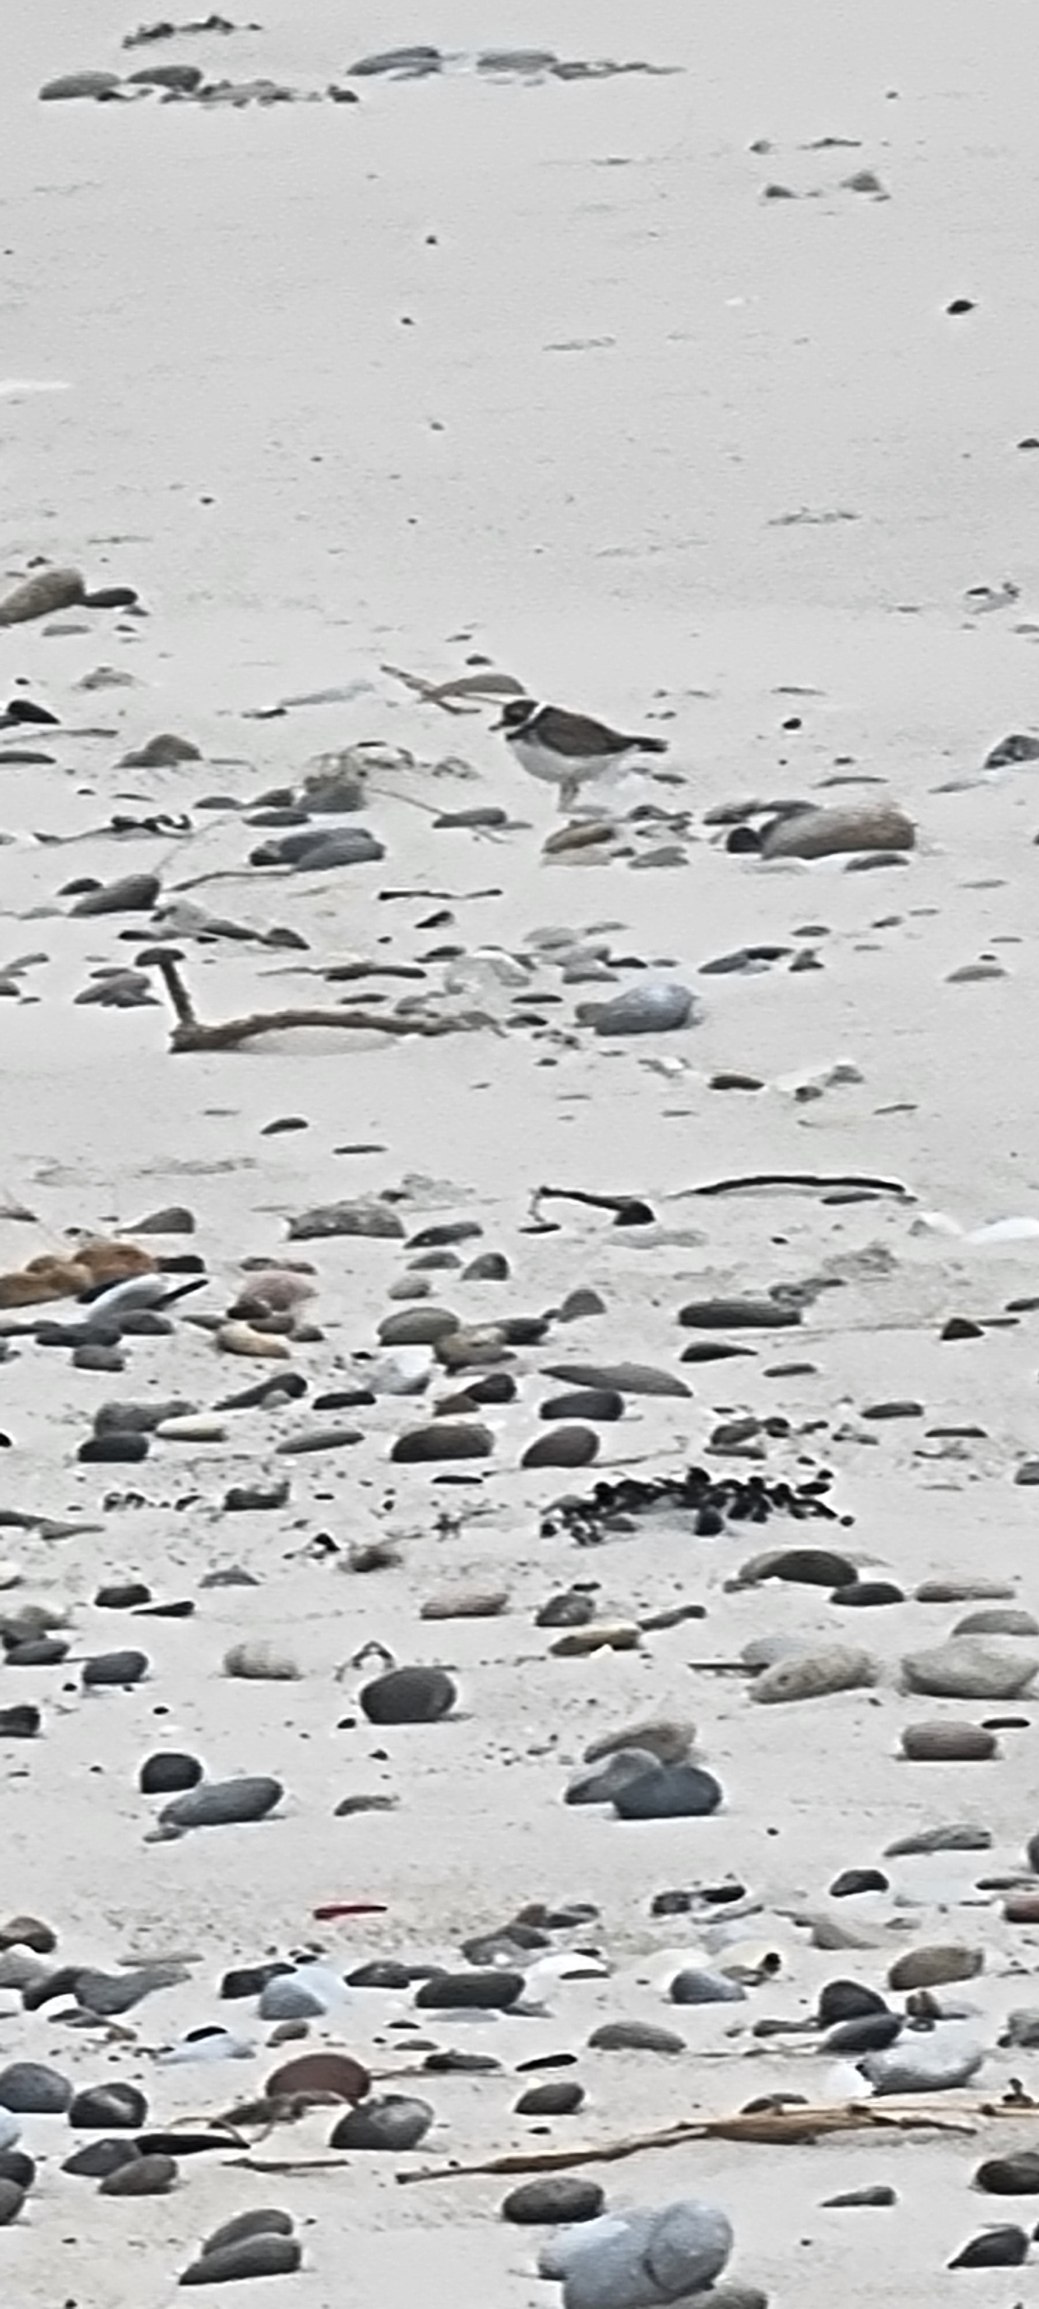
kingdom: Animalia
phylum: Chordata
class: Aves
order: Charadriiformes
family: Charadriidae
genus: Charadrius
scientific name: Charadrius hiaticula
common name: Stor præstekrave
